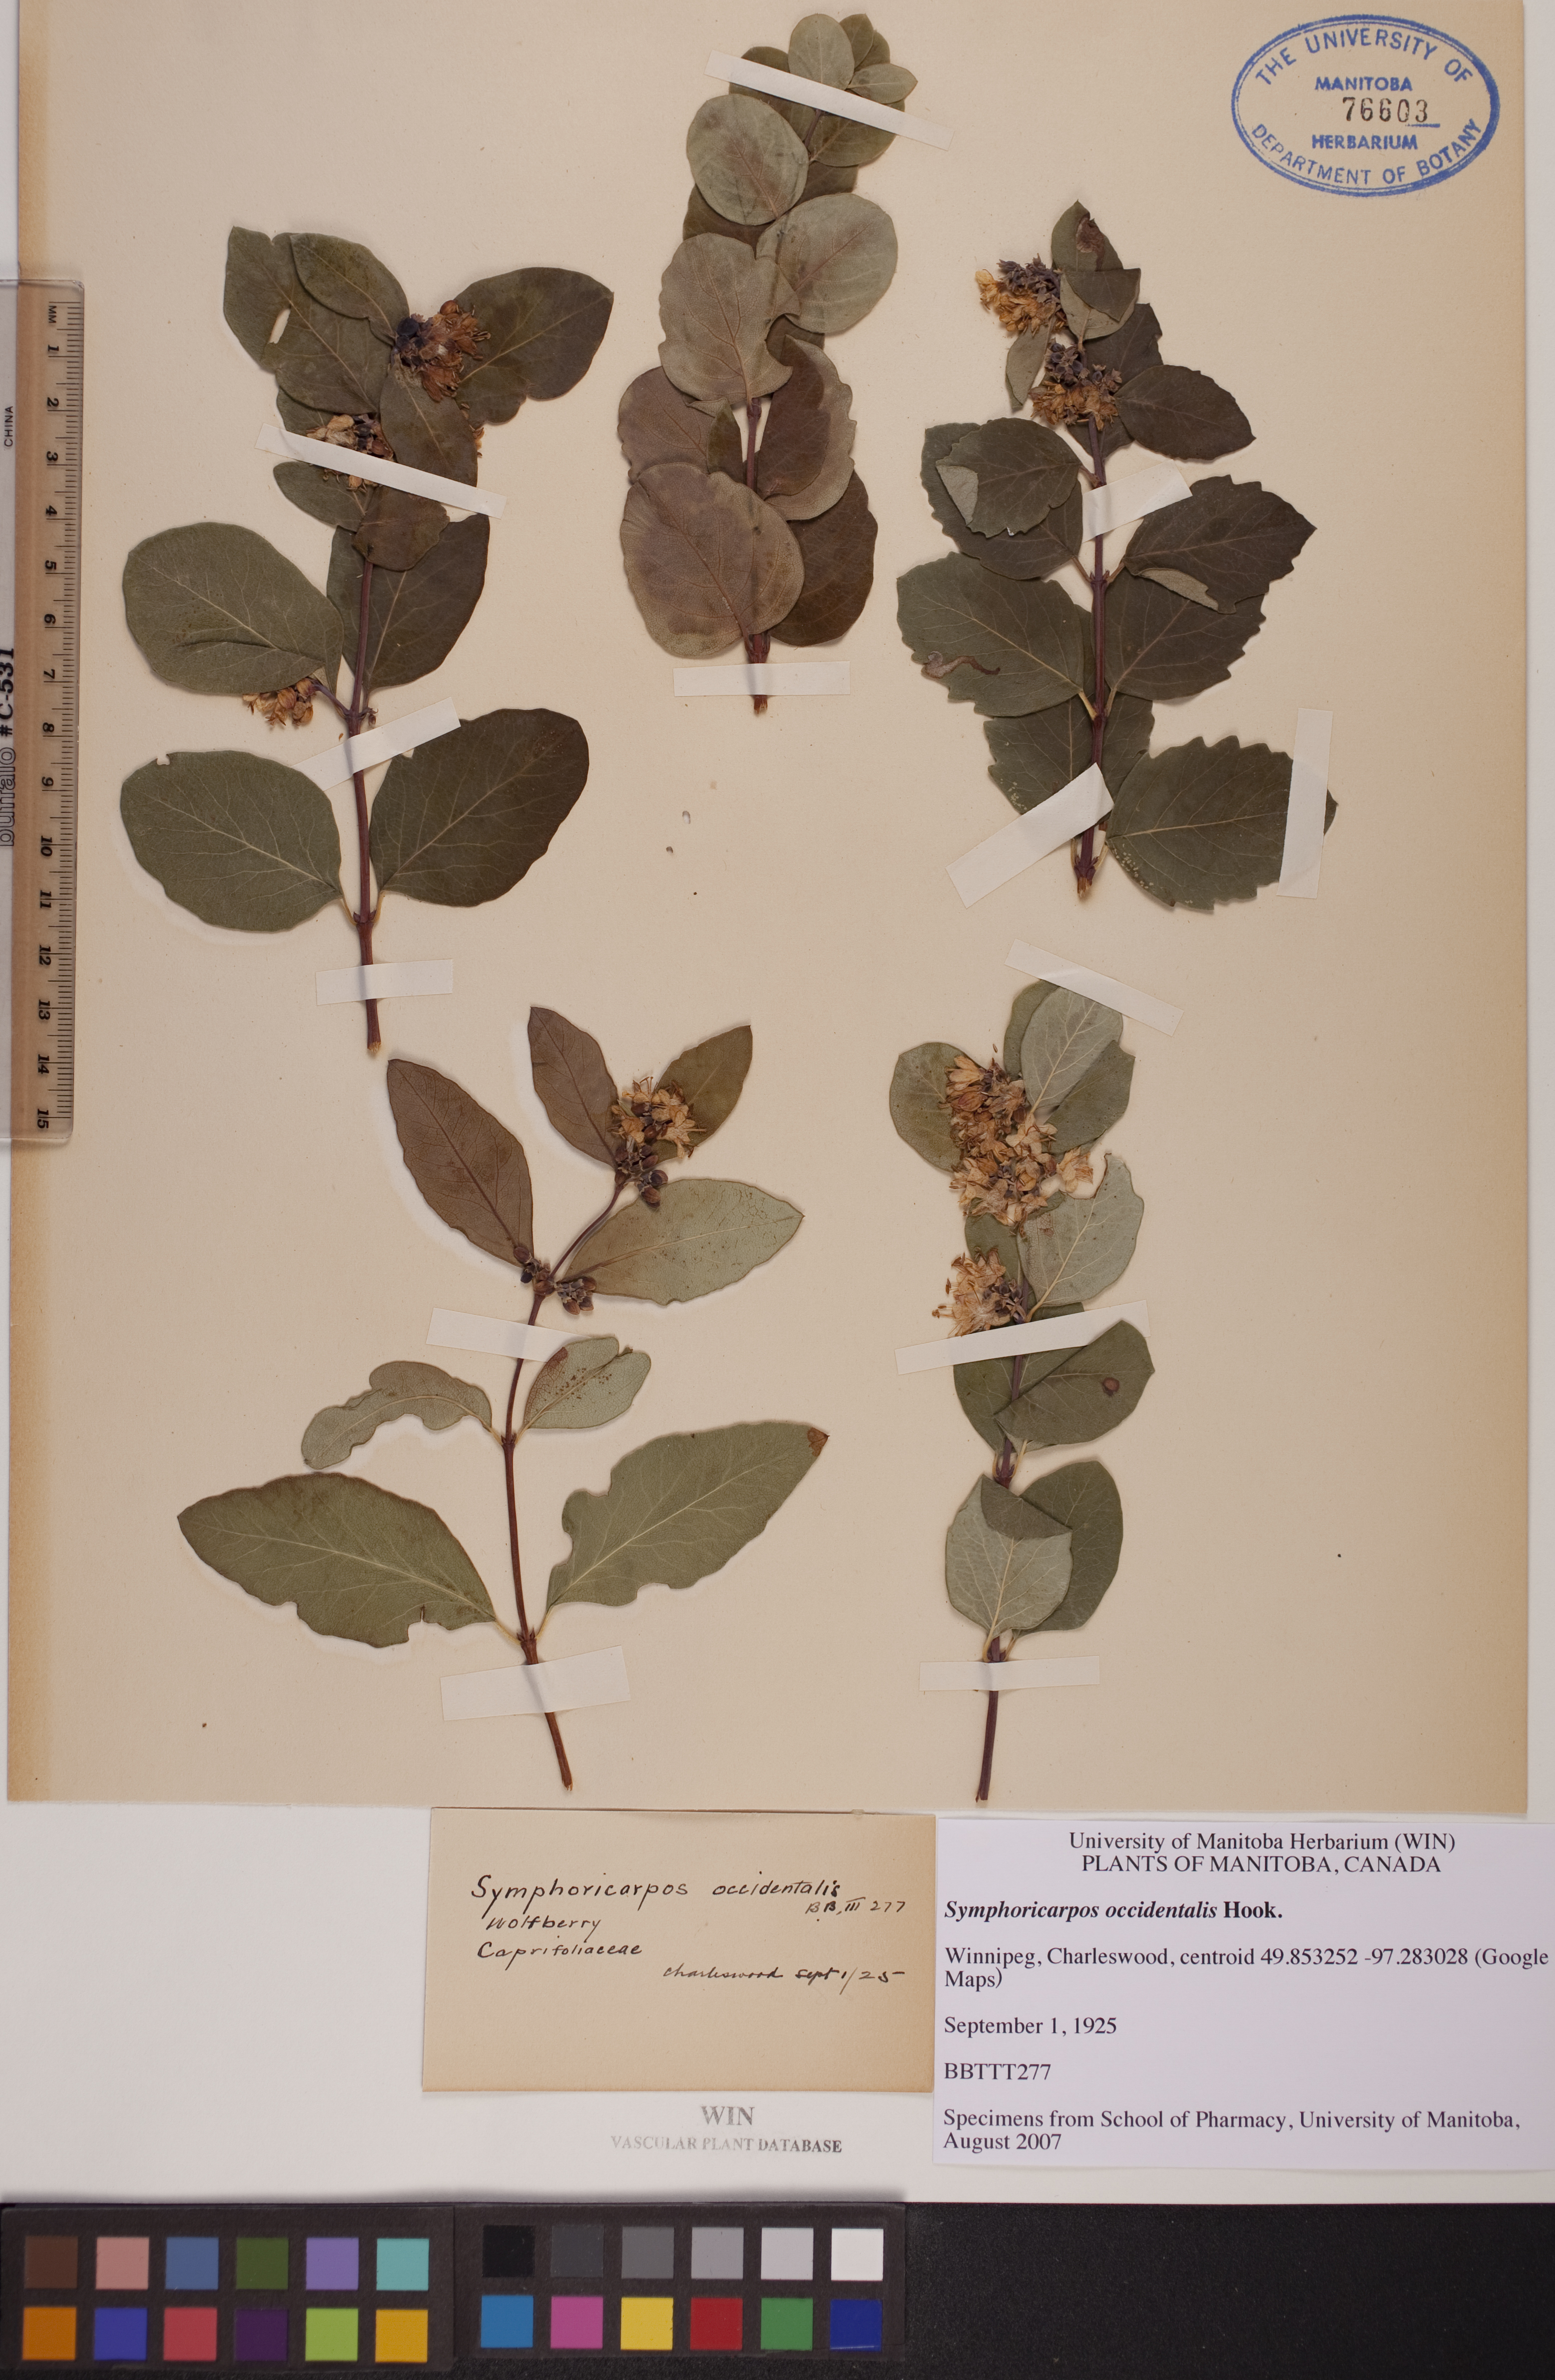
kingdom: Plantae
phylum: Tracheophyta
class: Magnoliopsida
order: Dipsacales
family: Caprifoliaceae
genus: Symphoricarpos
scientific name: Symphoricarpos occidentalis
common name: Wolfberry
